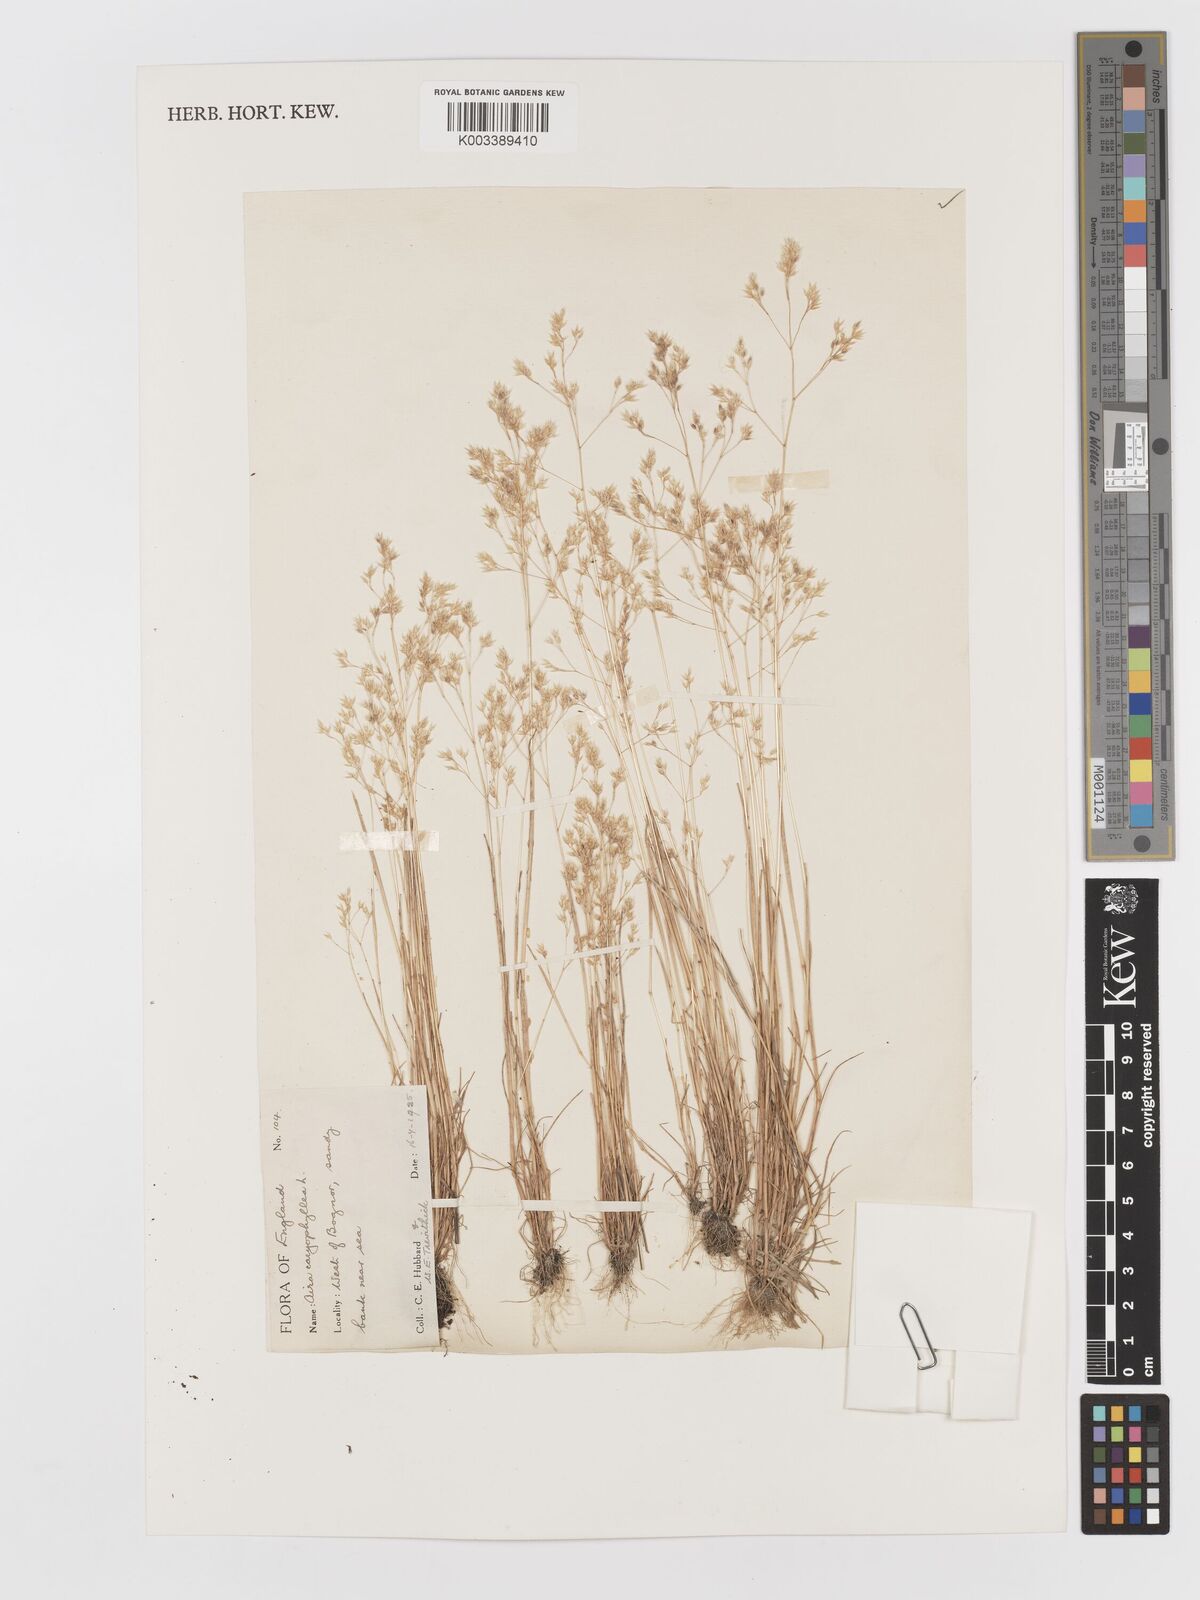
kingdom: Plantae
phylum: Tracheophyta
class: Liliopsida
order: Poales
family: Poaceae
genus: Aira
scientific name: Aira caryophyllea
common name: Silver hairgrass
